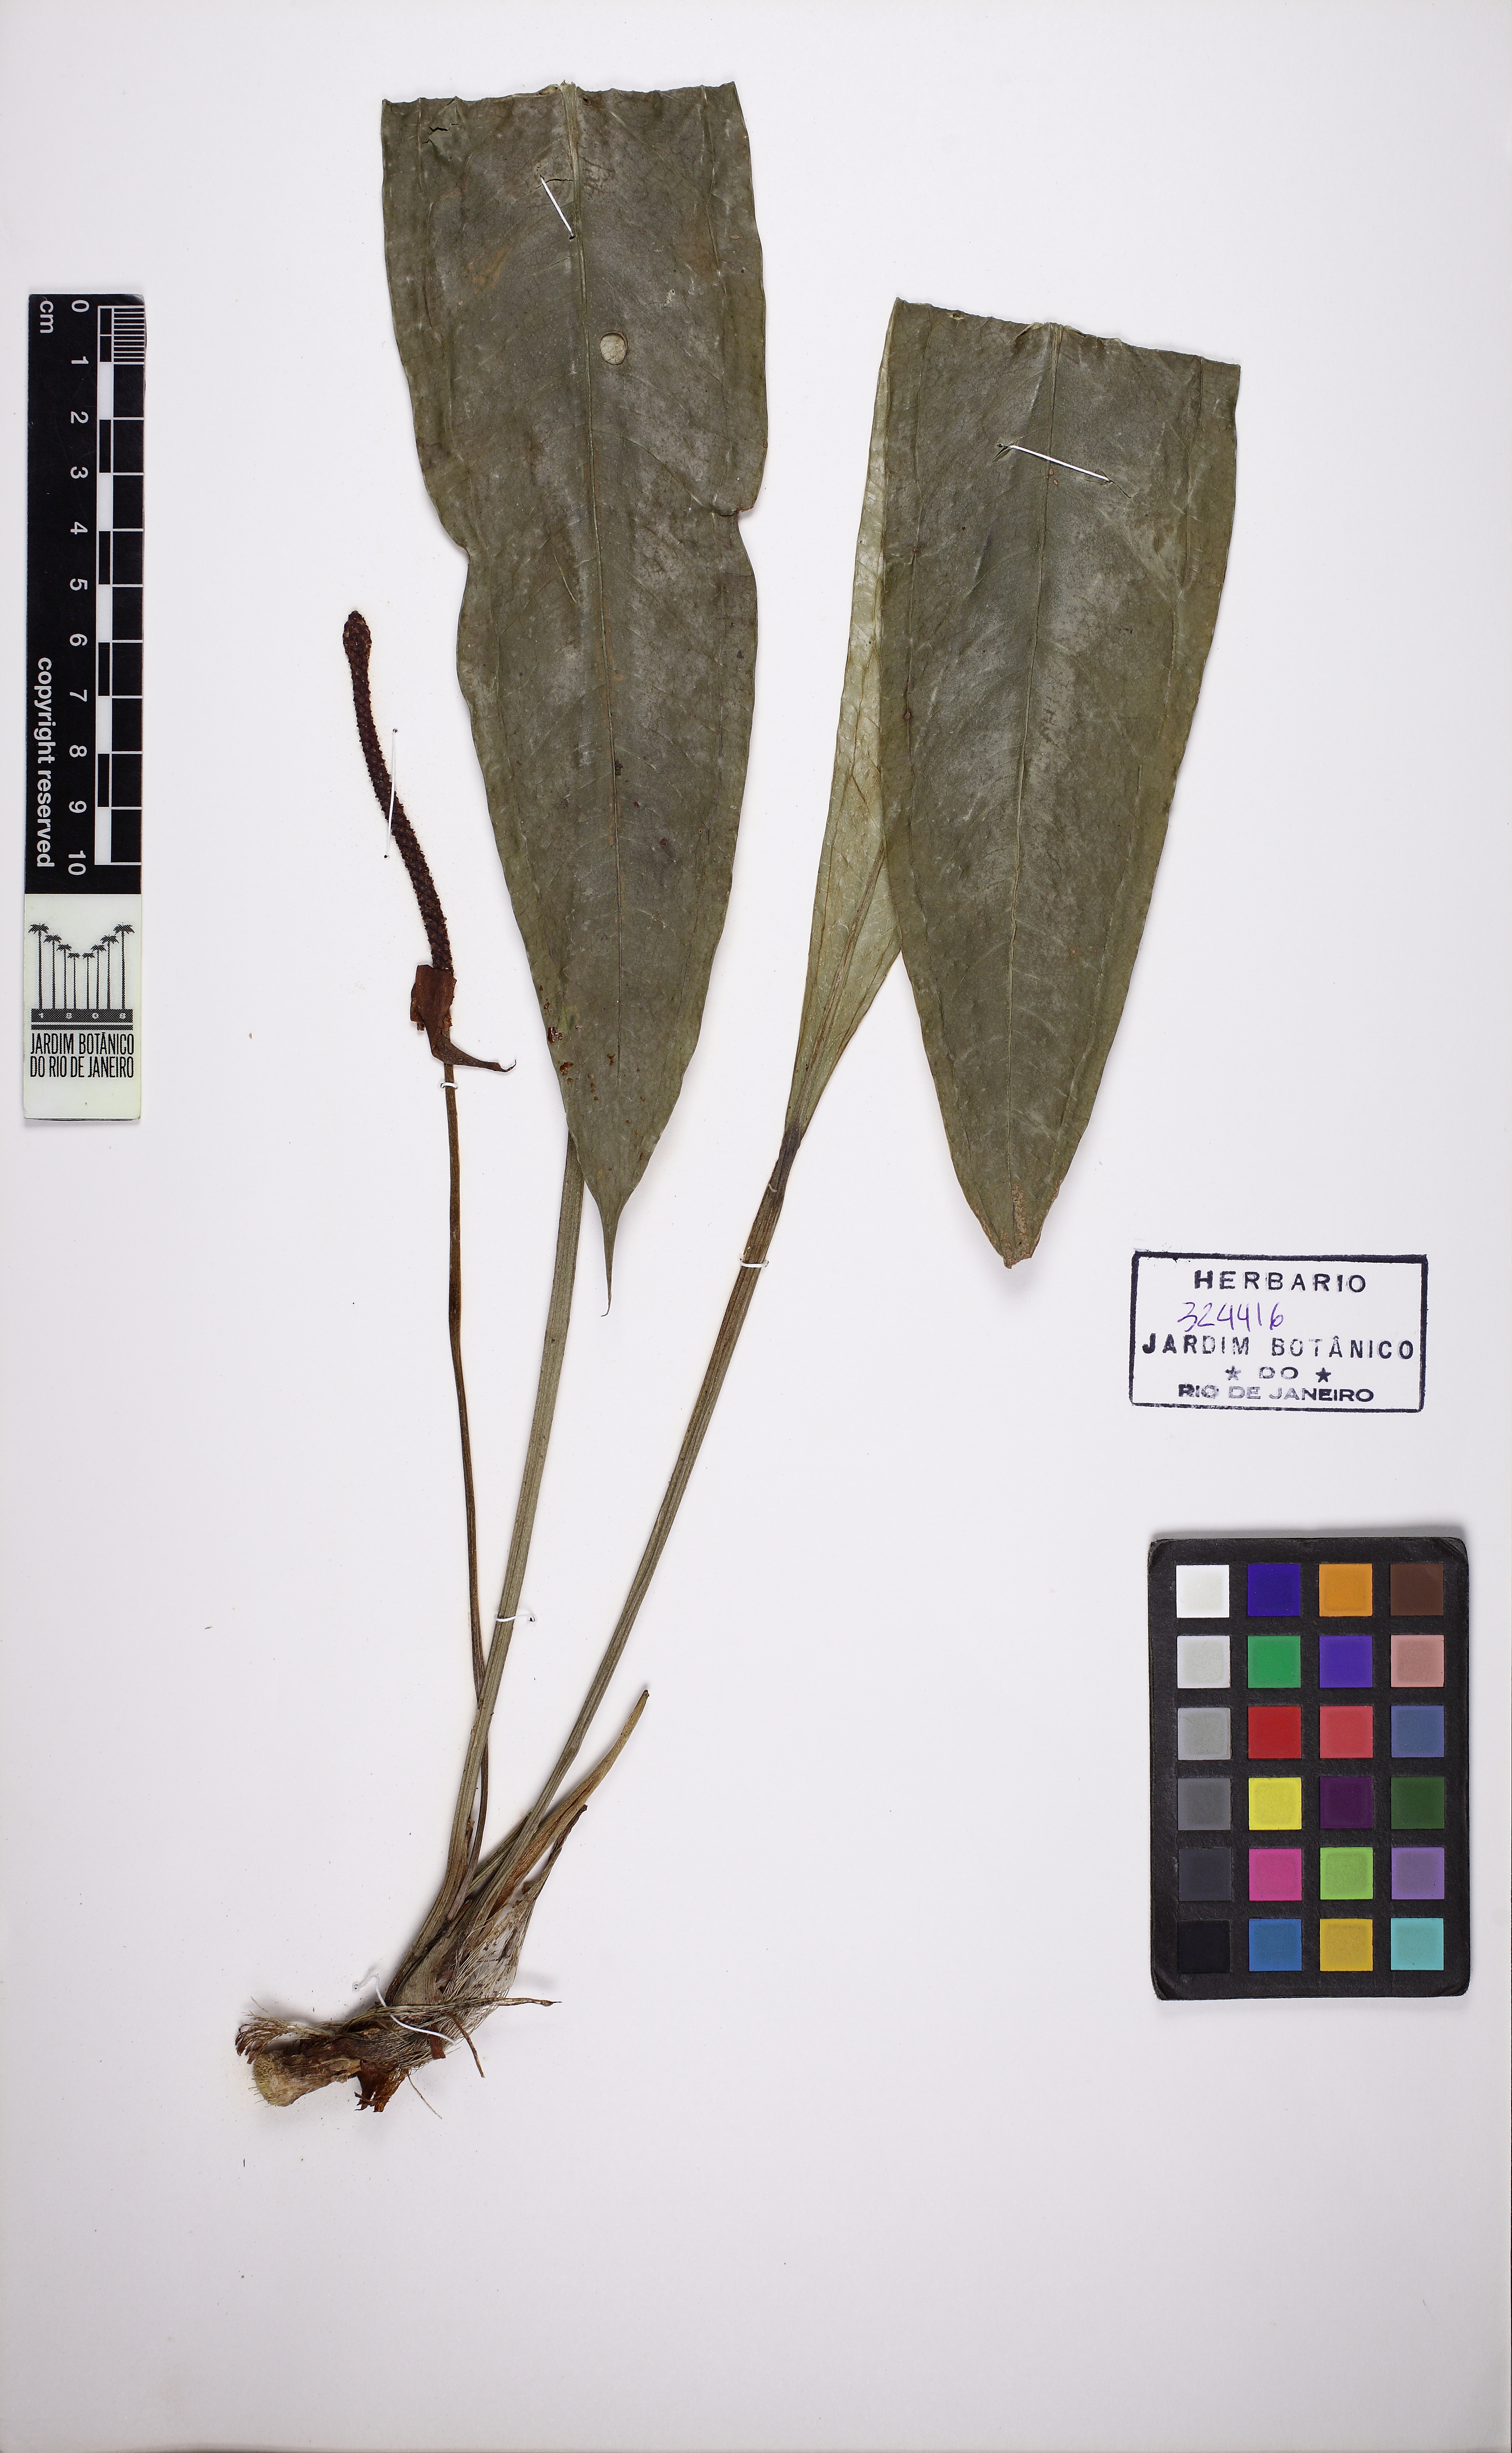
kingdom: Plantae
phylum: Tracheophyta
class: Liliopsida
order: Alismatales
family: Araceae
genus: Anthurium
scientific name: Anthurium intermedium
